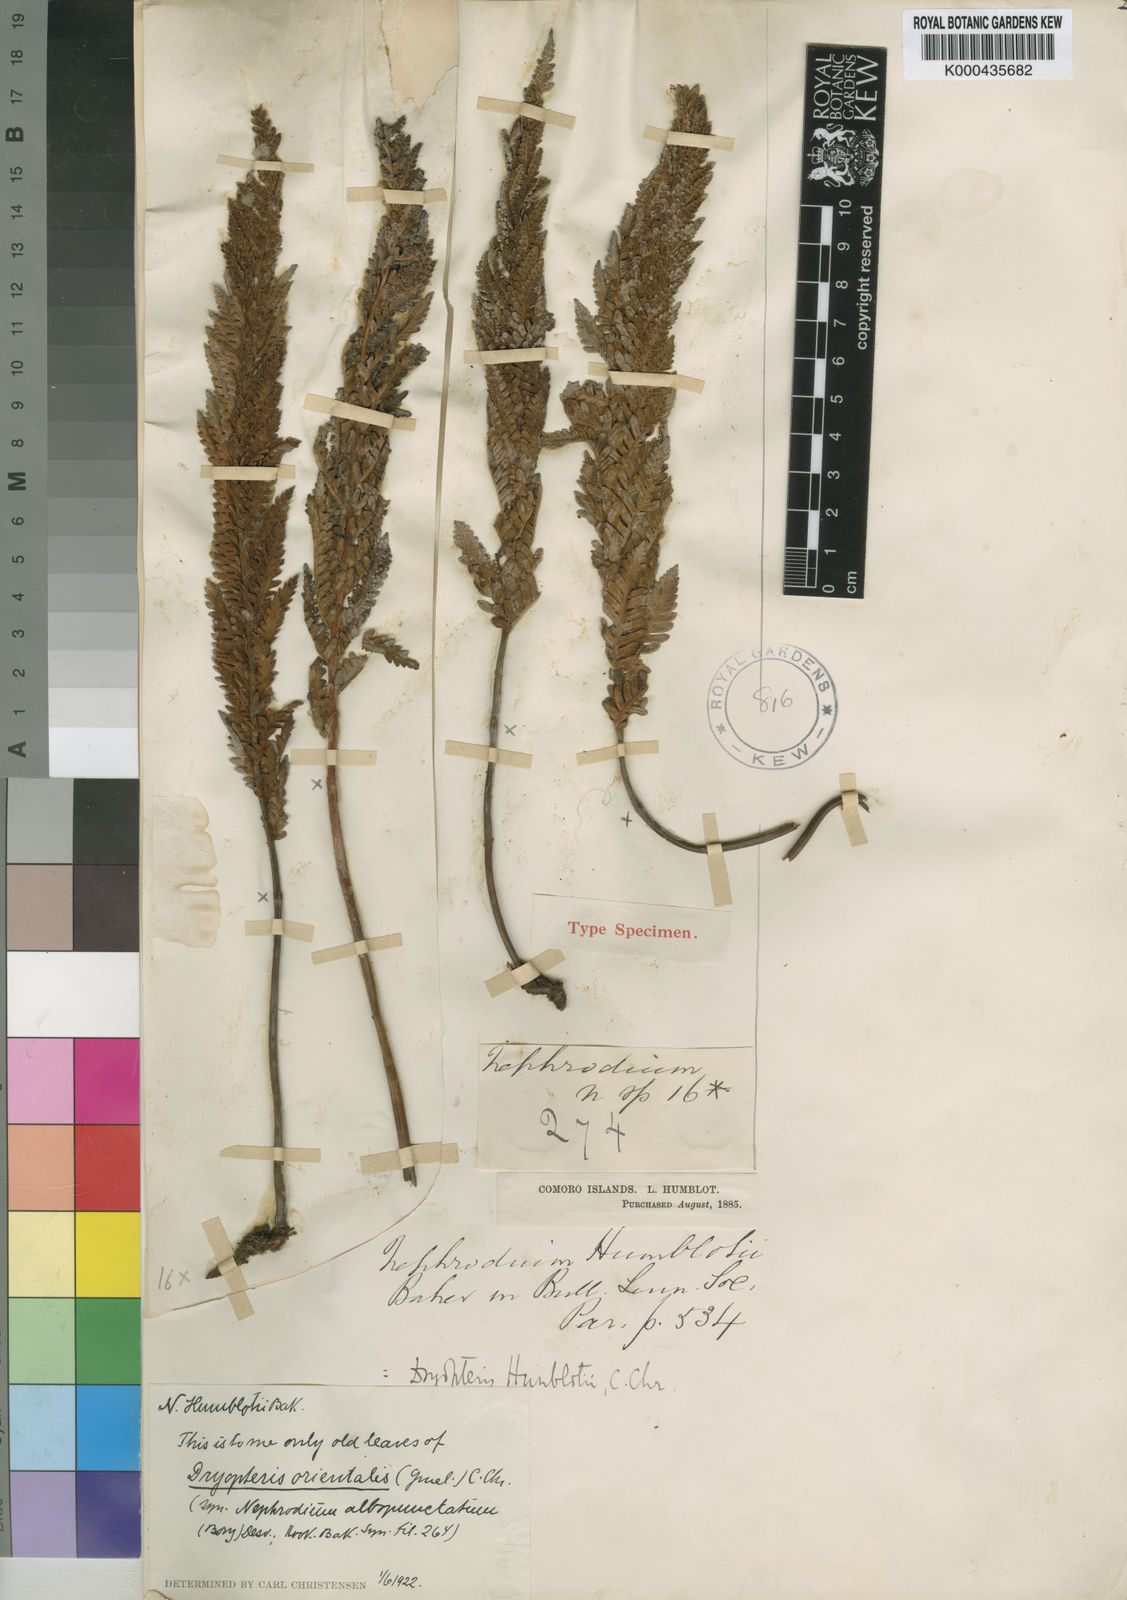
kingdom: Plantae
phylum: Tracheophyta
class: Polypodiopsida
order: Polypodiales
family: Tectariaceae
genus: Arthropteris
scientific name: Arthropteris orientalis
